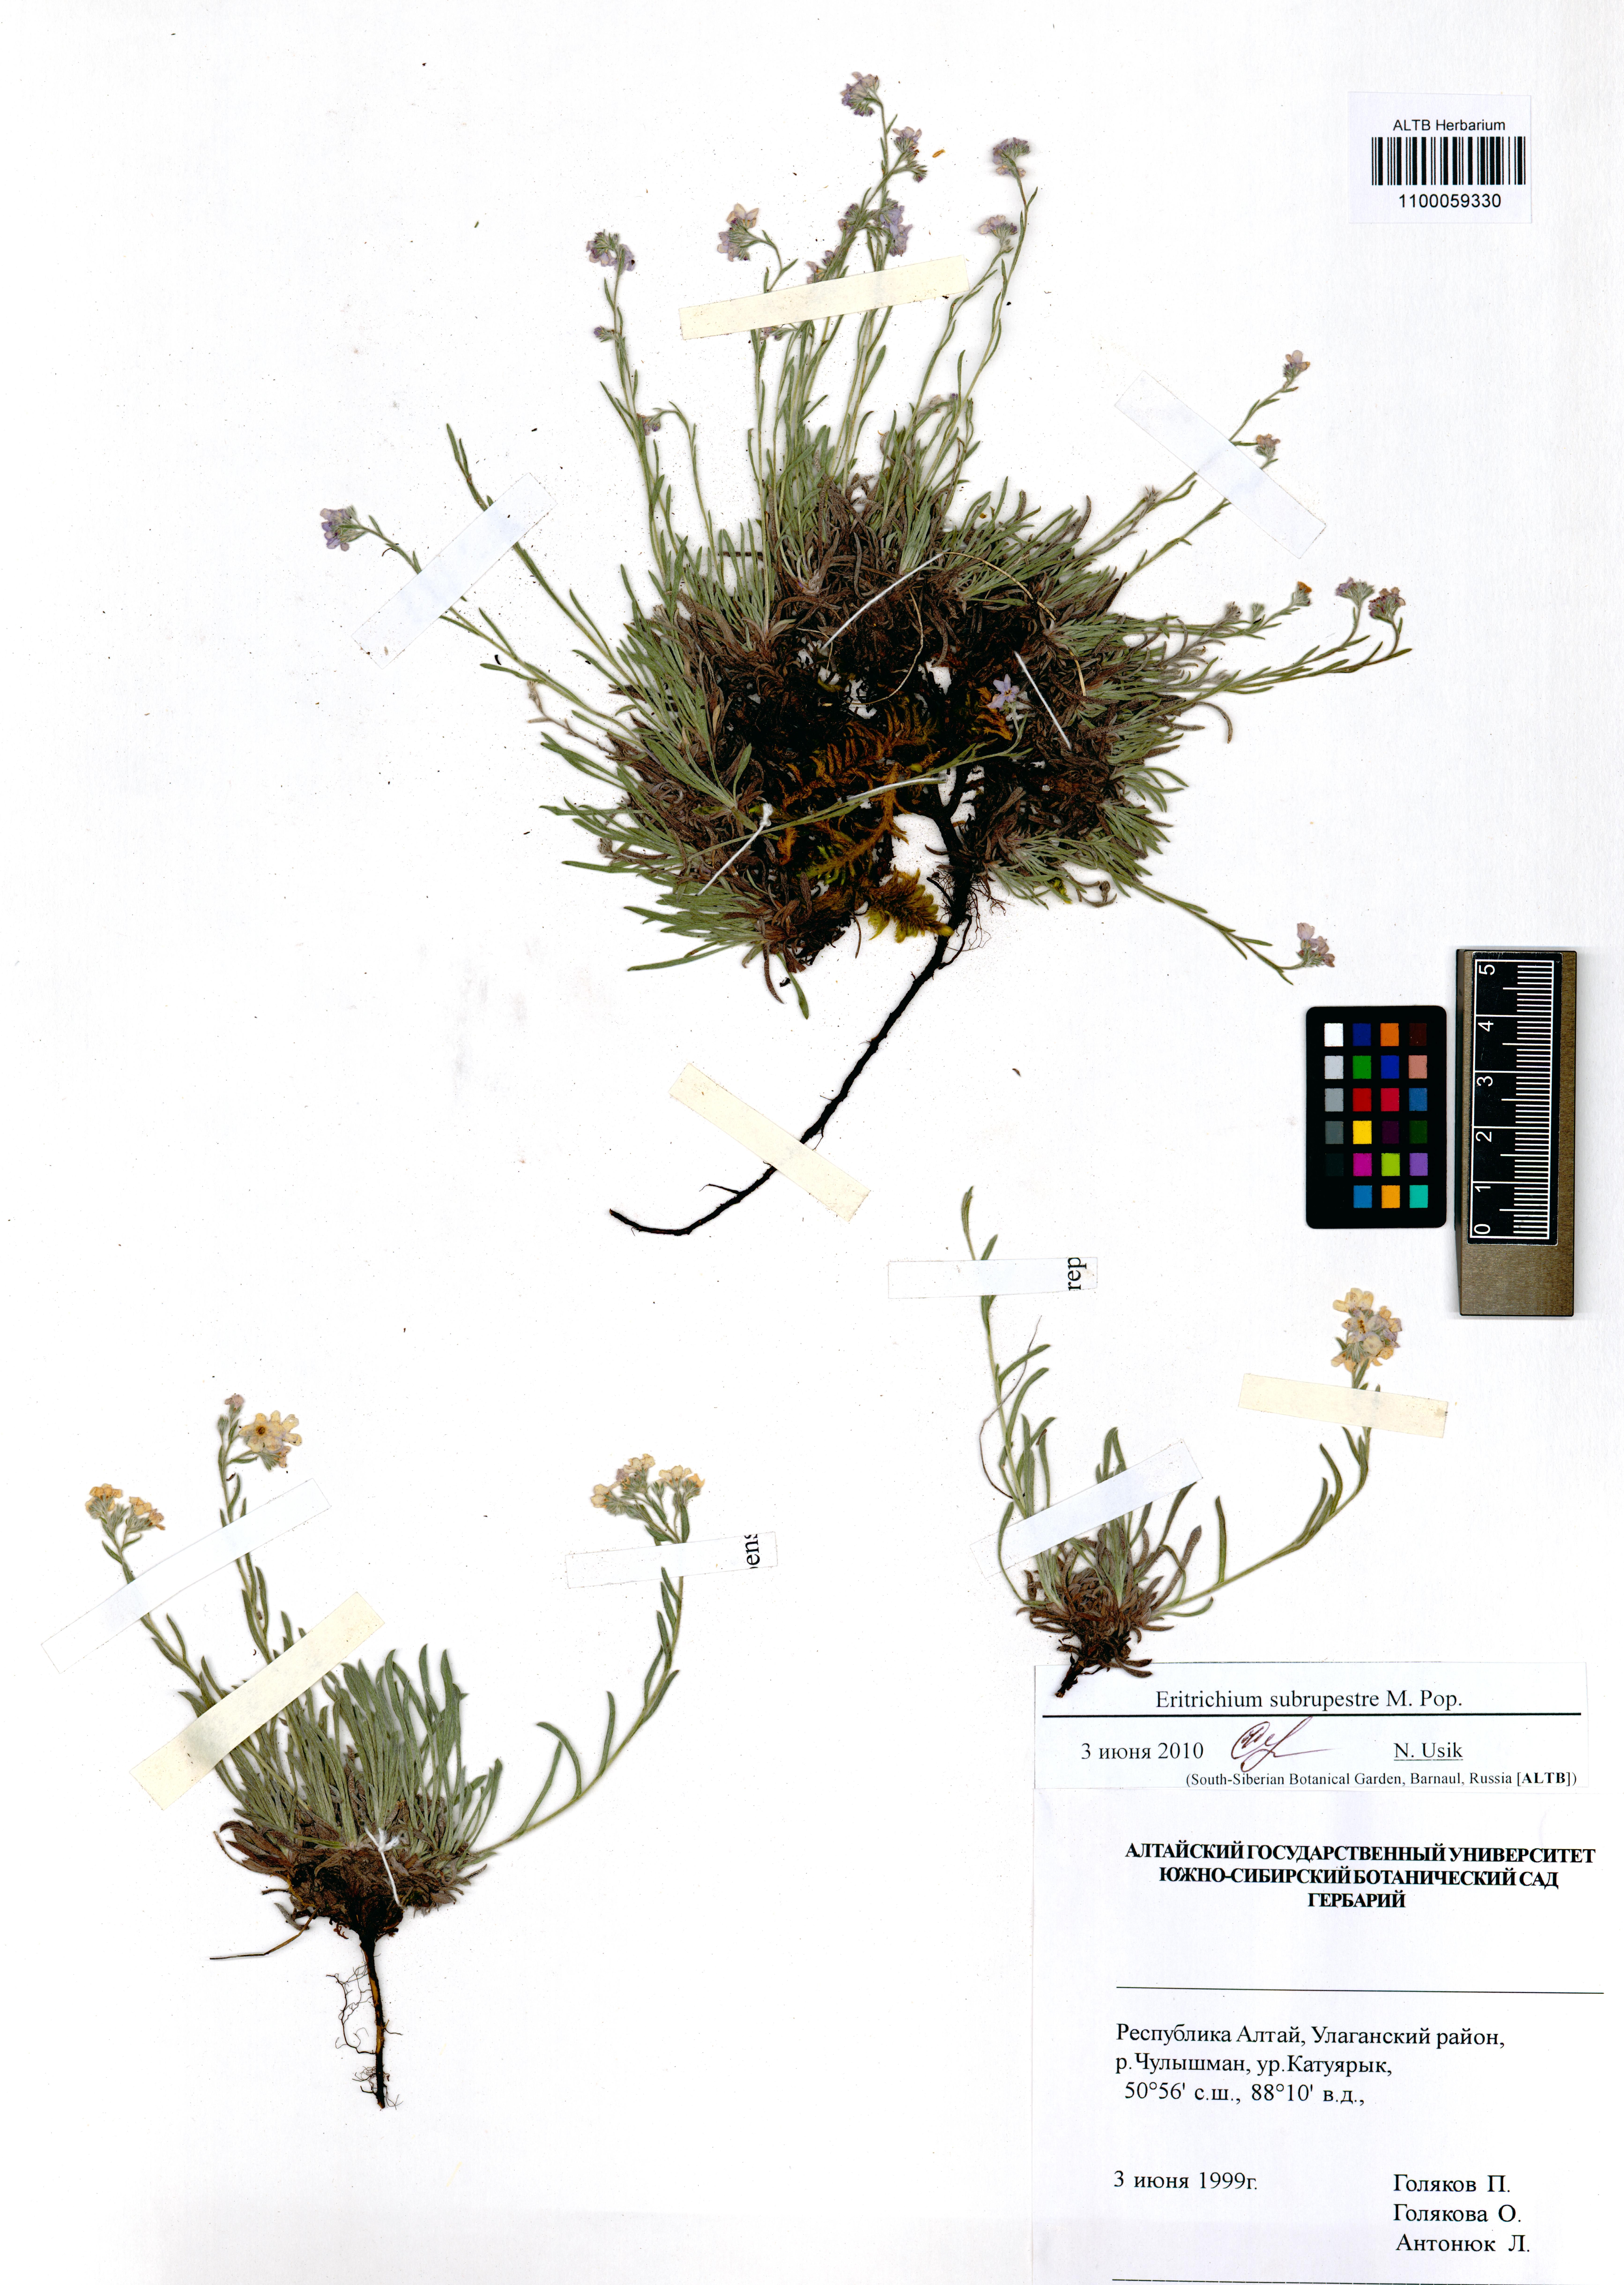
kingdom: Plantae
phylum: Tracheophyta
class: Magnoliopsida
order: Boraginales
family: Boraginaceae
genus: Eritrichium
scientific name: Eritrichium pauciflorum
